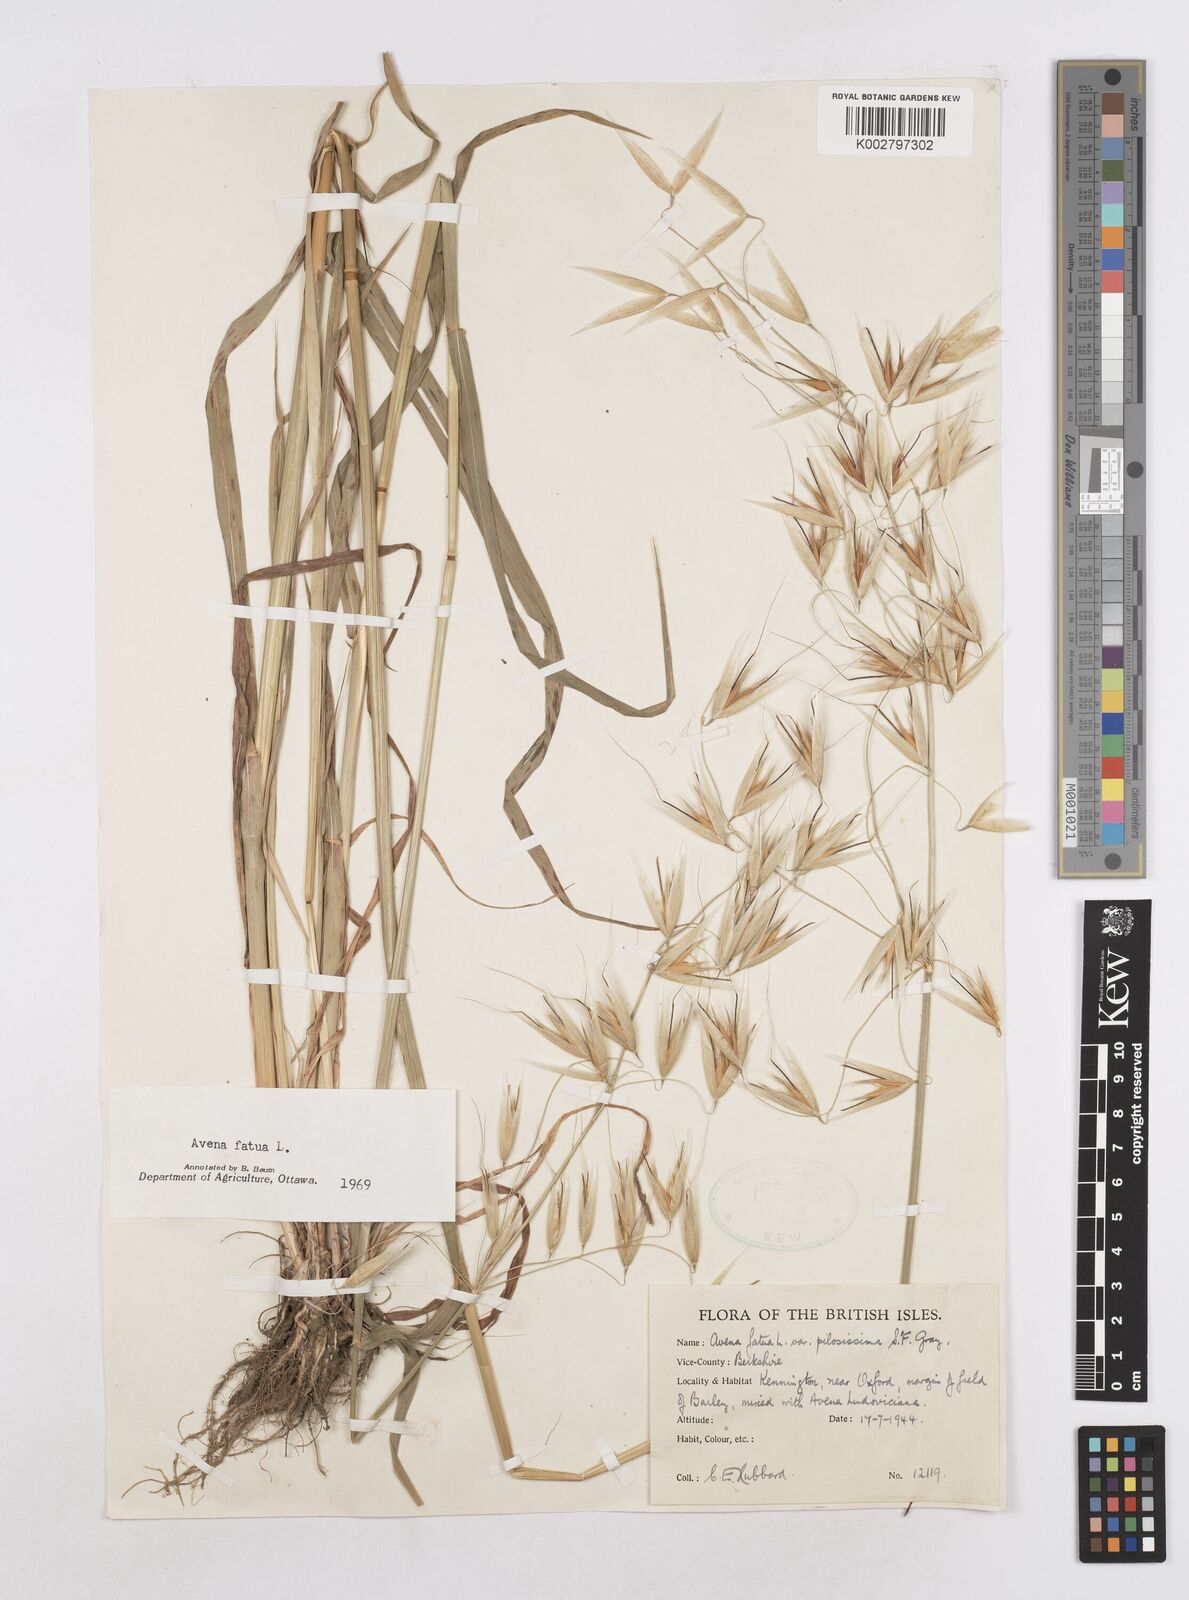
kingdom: Plantae
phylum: Tracheophyta
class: Liliopsida
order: Poales
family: Poaceae
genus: Avena
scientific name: Avena fatua
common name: Wild oat
